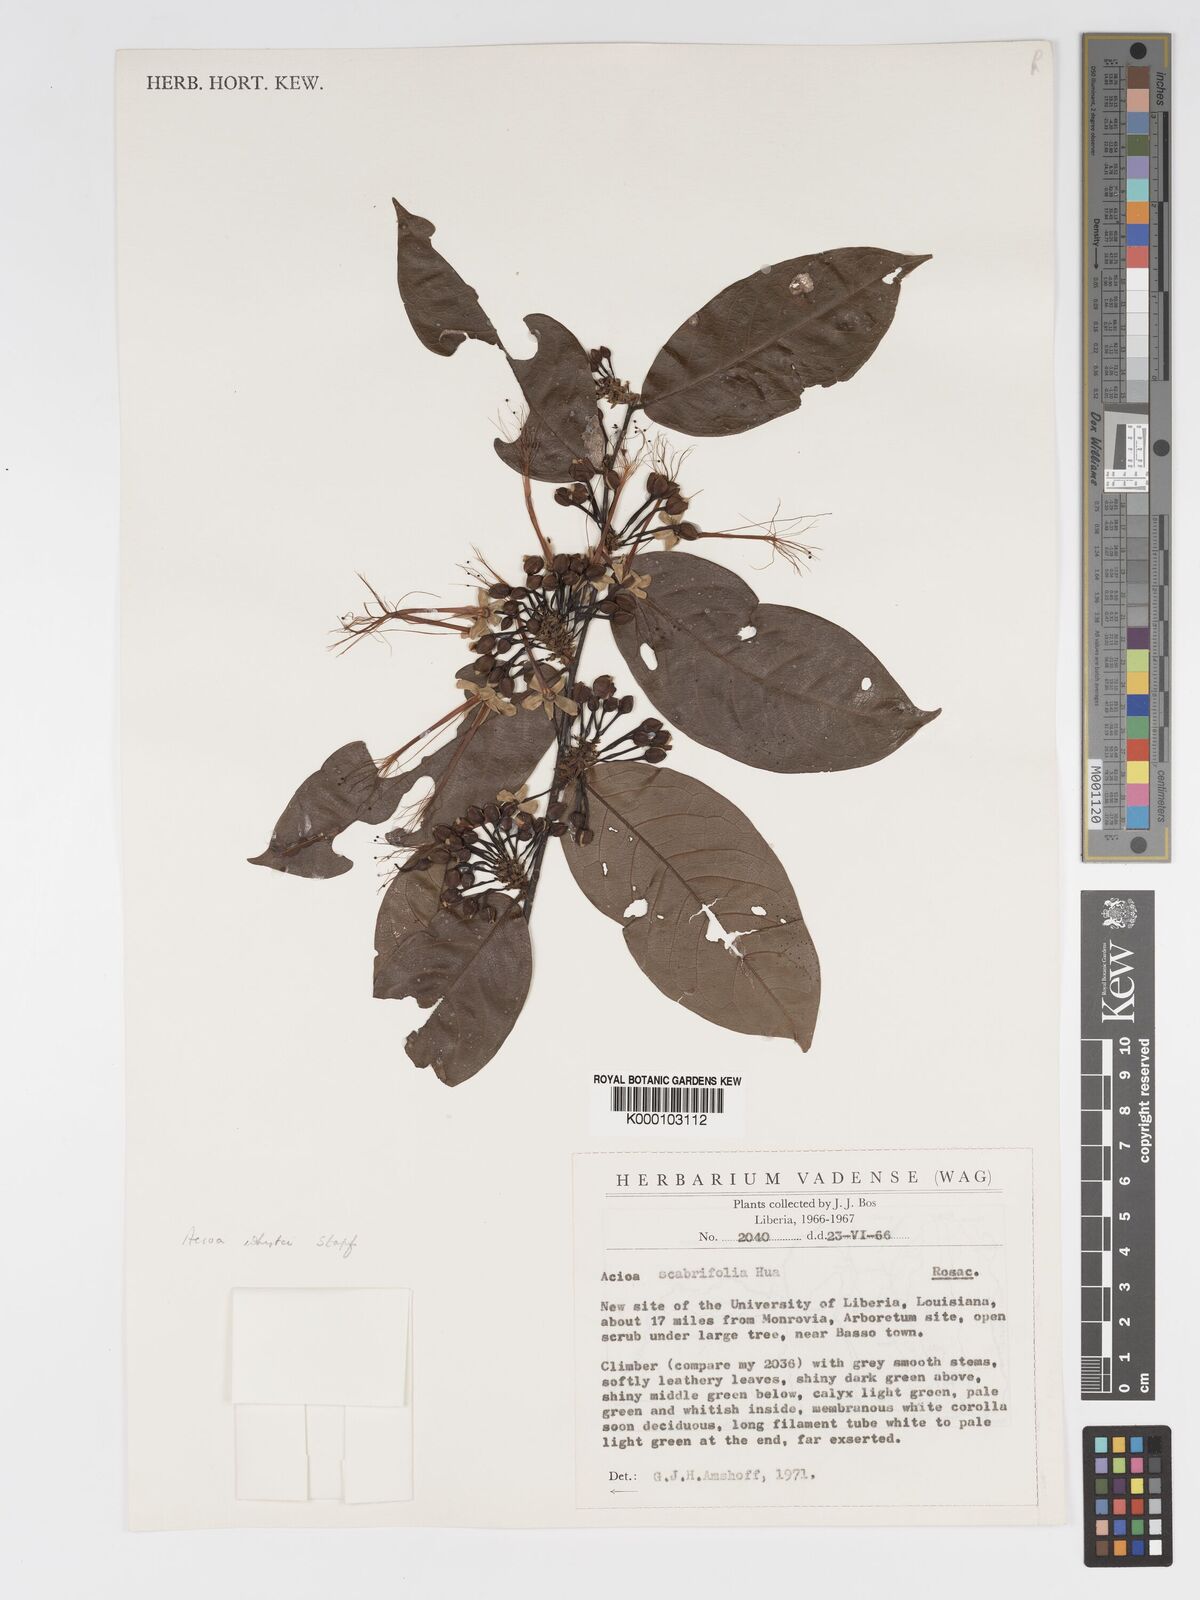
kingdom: Plantae
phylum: Tracheophyta
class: Magnoliopsida
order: Malpighiales
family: Chrysobalanaceae
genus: Dactyladenia
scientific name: Dactyladenia whytei
